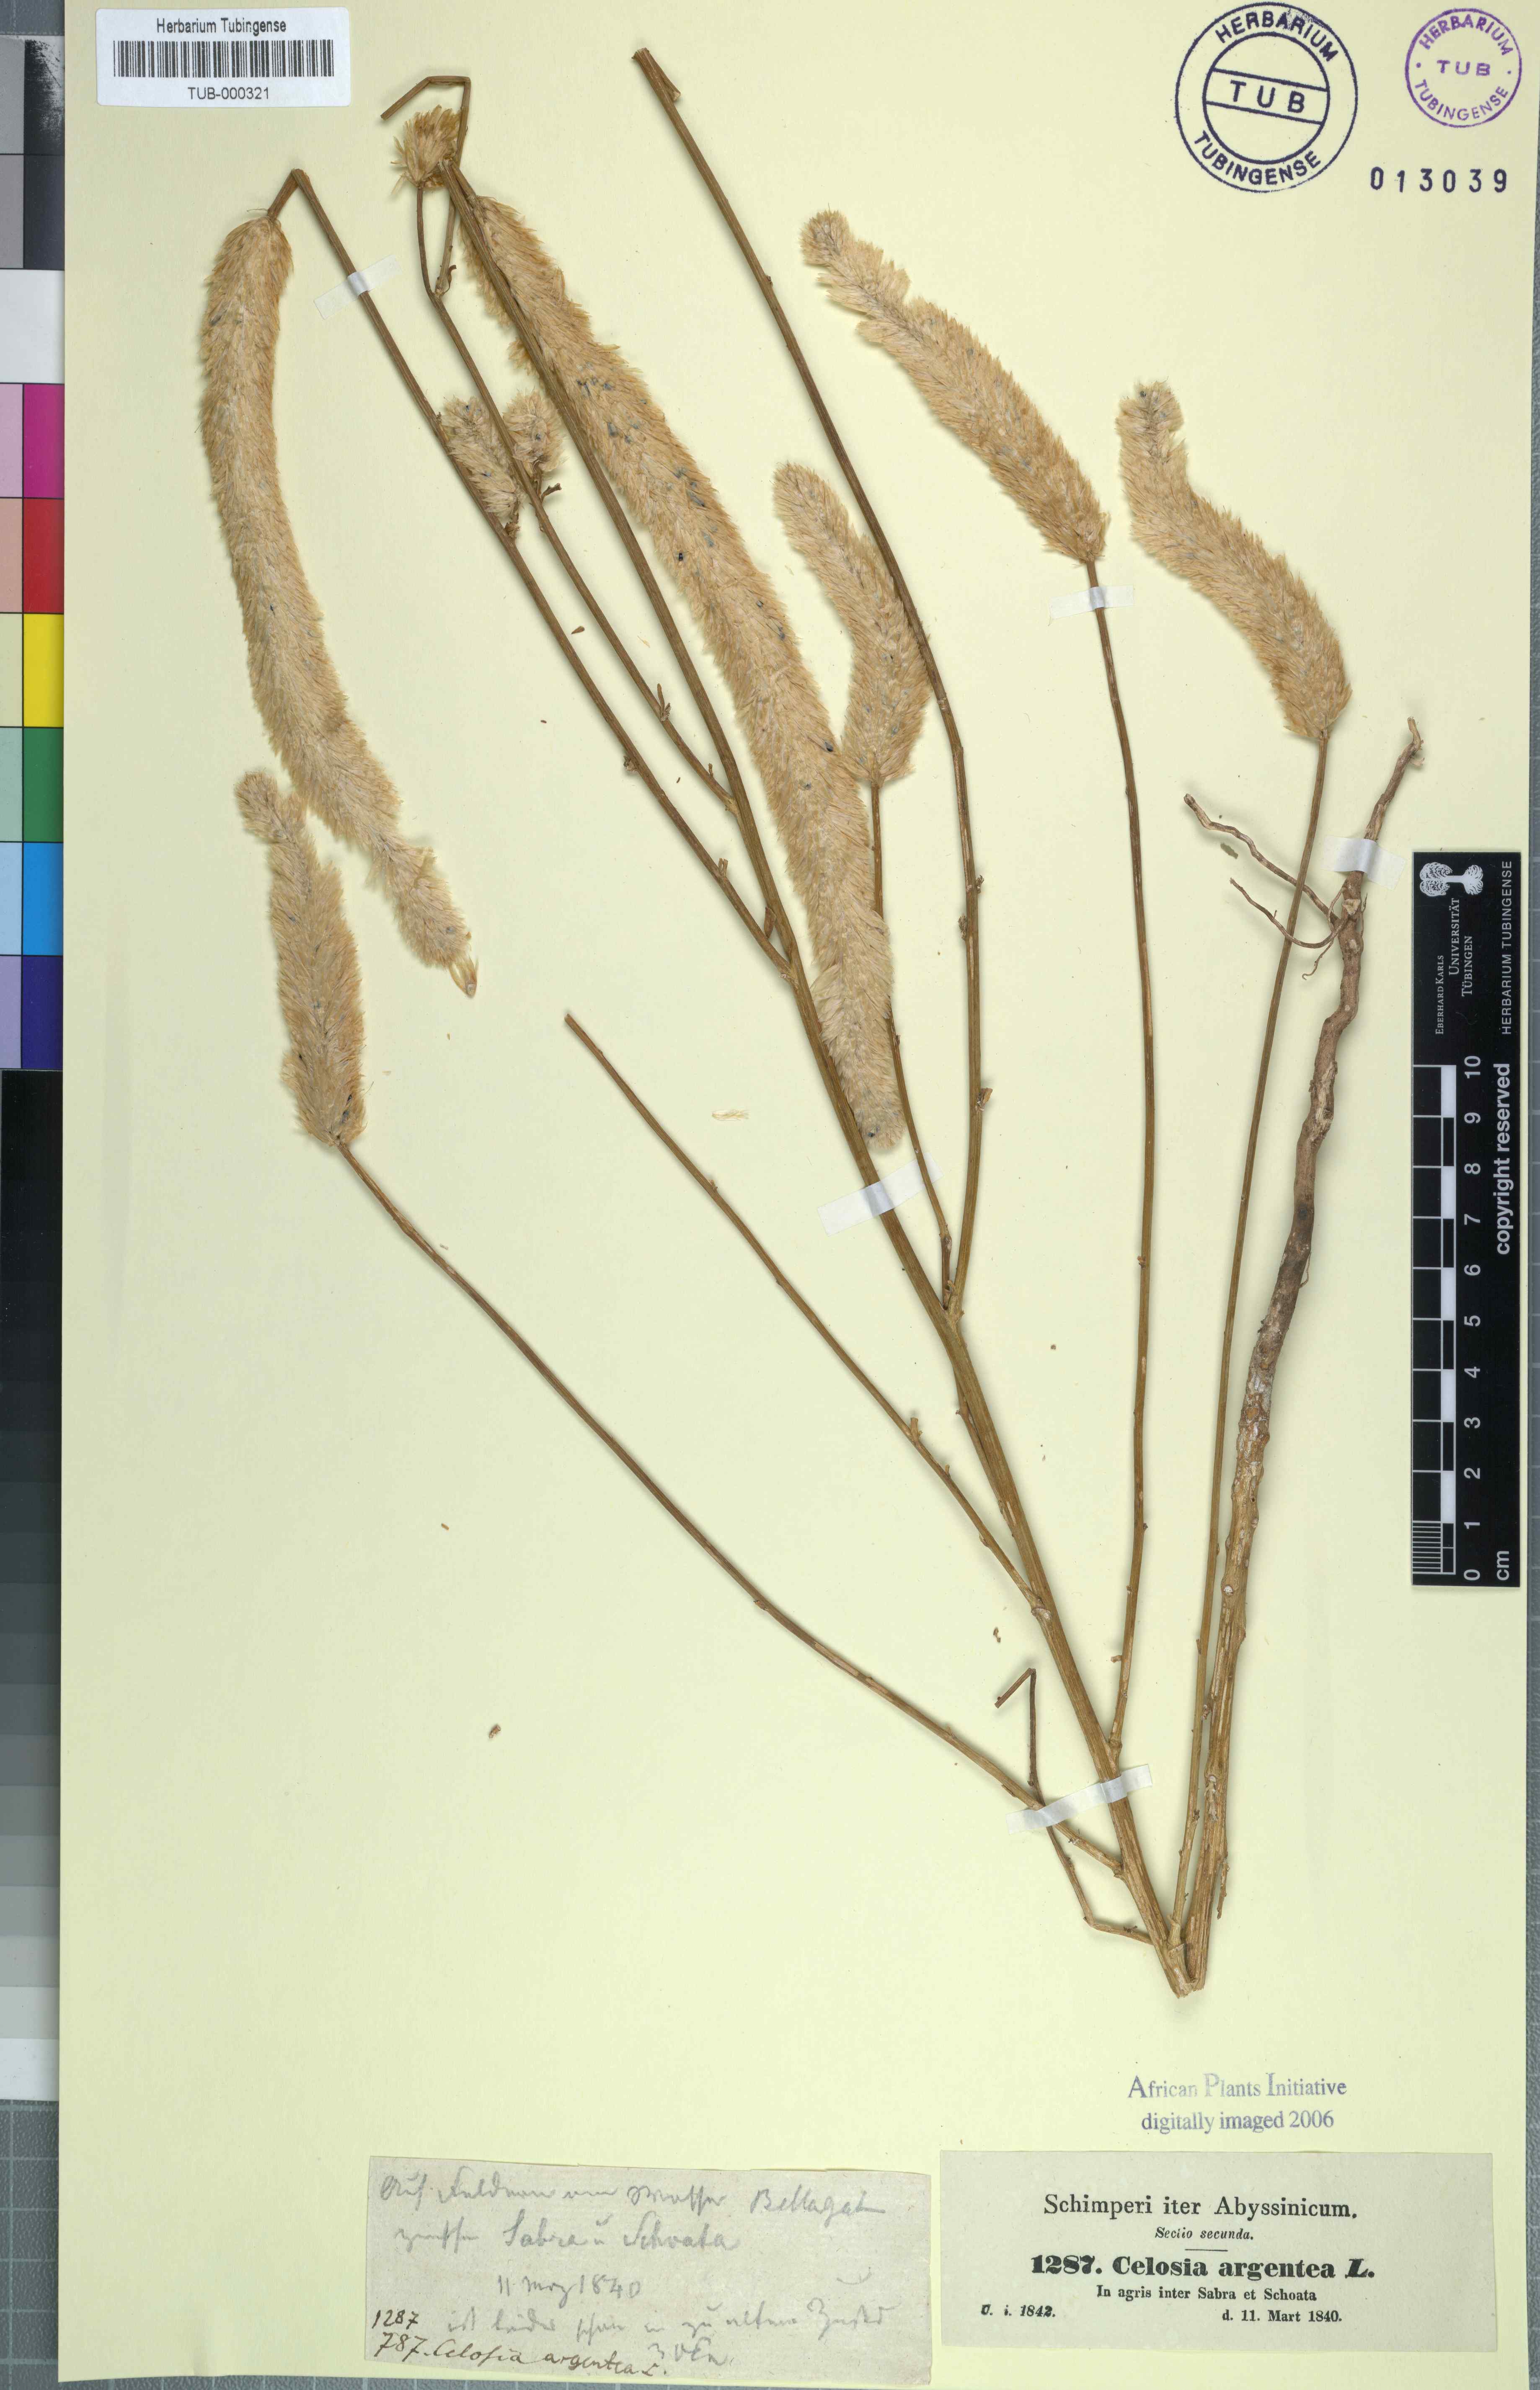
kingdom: Plantae
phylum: Tracheophyta
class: Magnoliopsida
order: Caryophyllales
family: Amaranthaceae
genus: Celosia
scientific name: Celosia argentea
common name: Feather cockscomb
